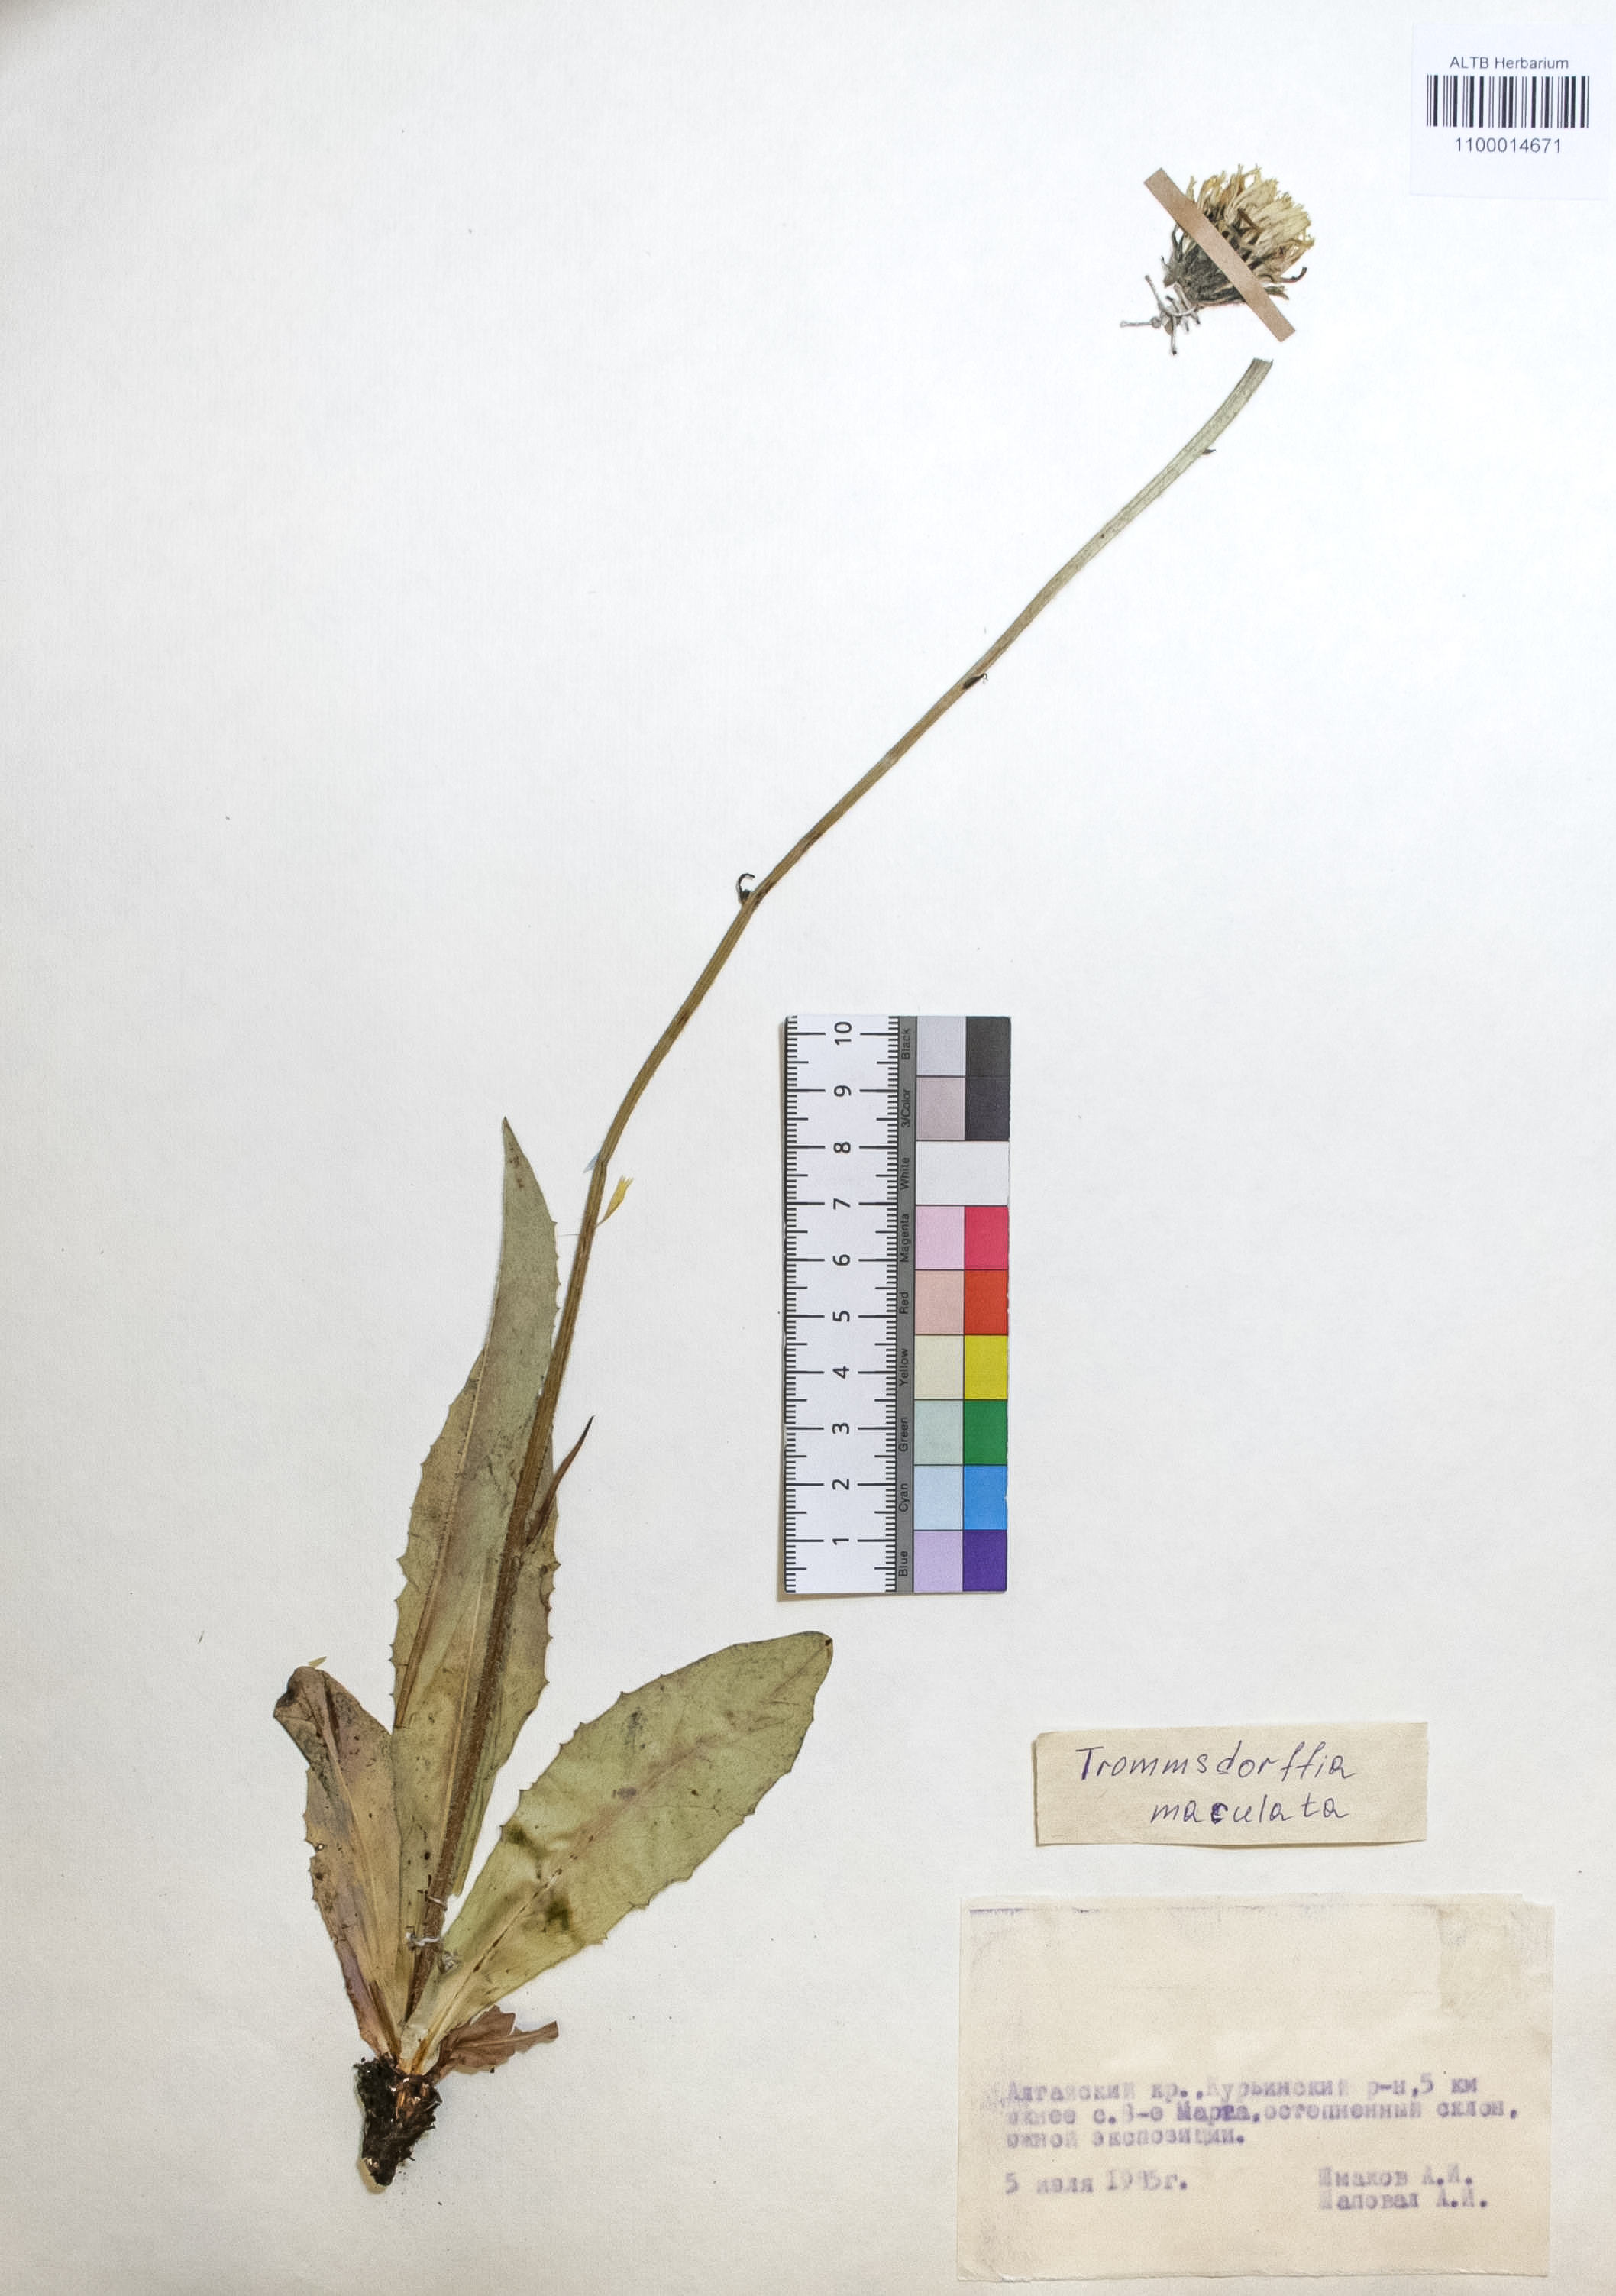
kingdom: Plantae
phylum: Tracheophyta
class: Magnoliopsida
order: Asterales
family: Asteraceae
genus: Trommsdorffia
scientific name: Trommsdorffia maculata
